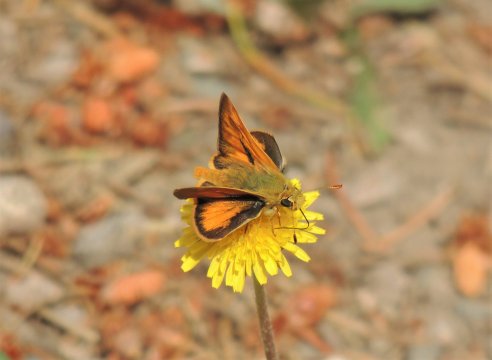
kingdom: Animalia
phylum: Arthropoda
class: Insecta
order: Lepidoptera
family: Hesperiidae
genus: Hesperia
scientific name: Hesperia comma
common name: Western Branded Skipper
